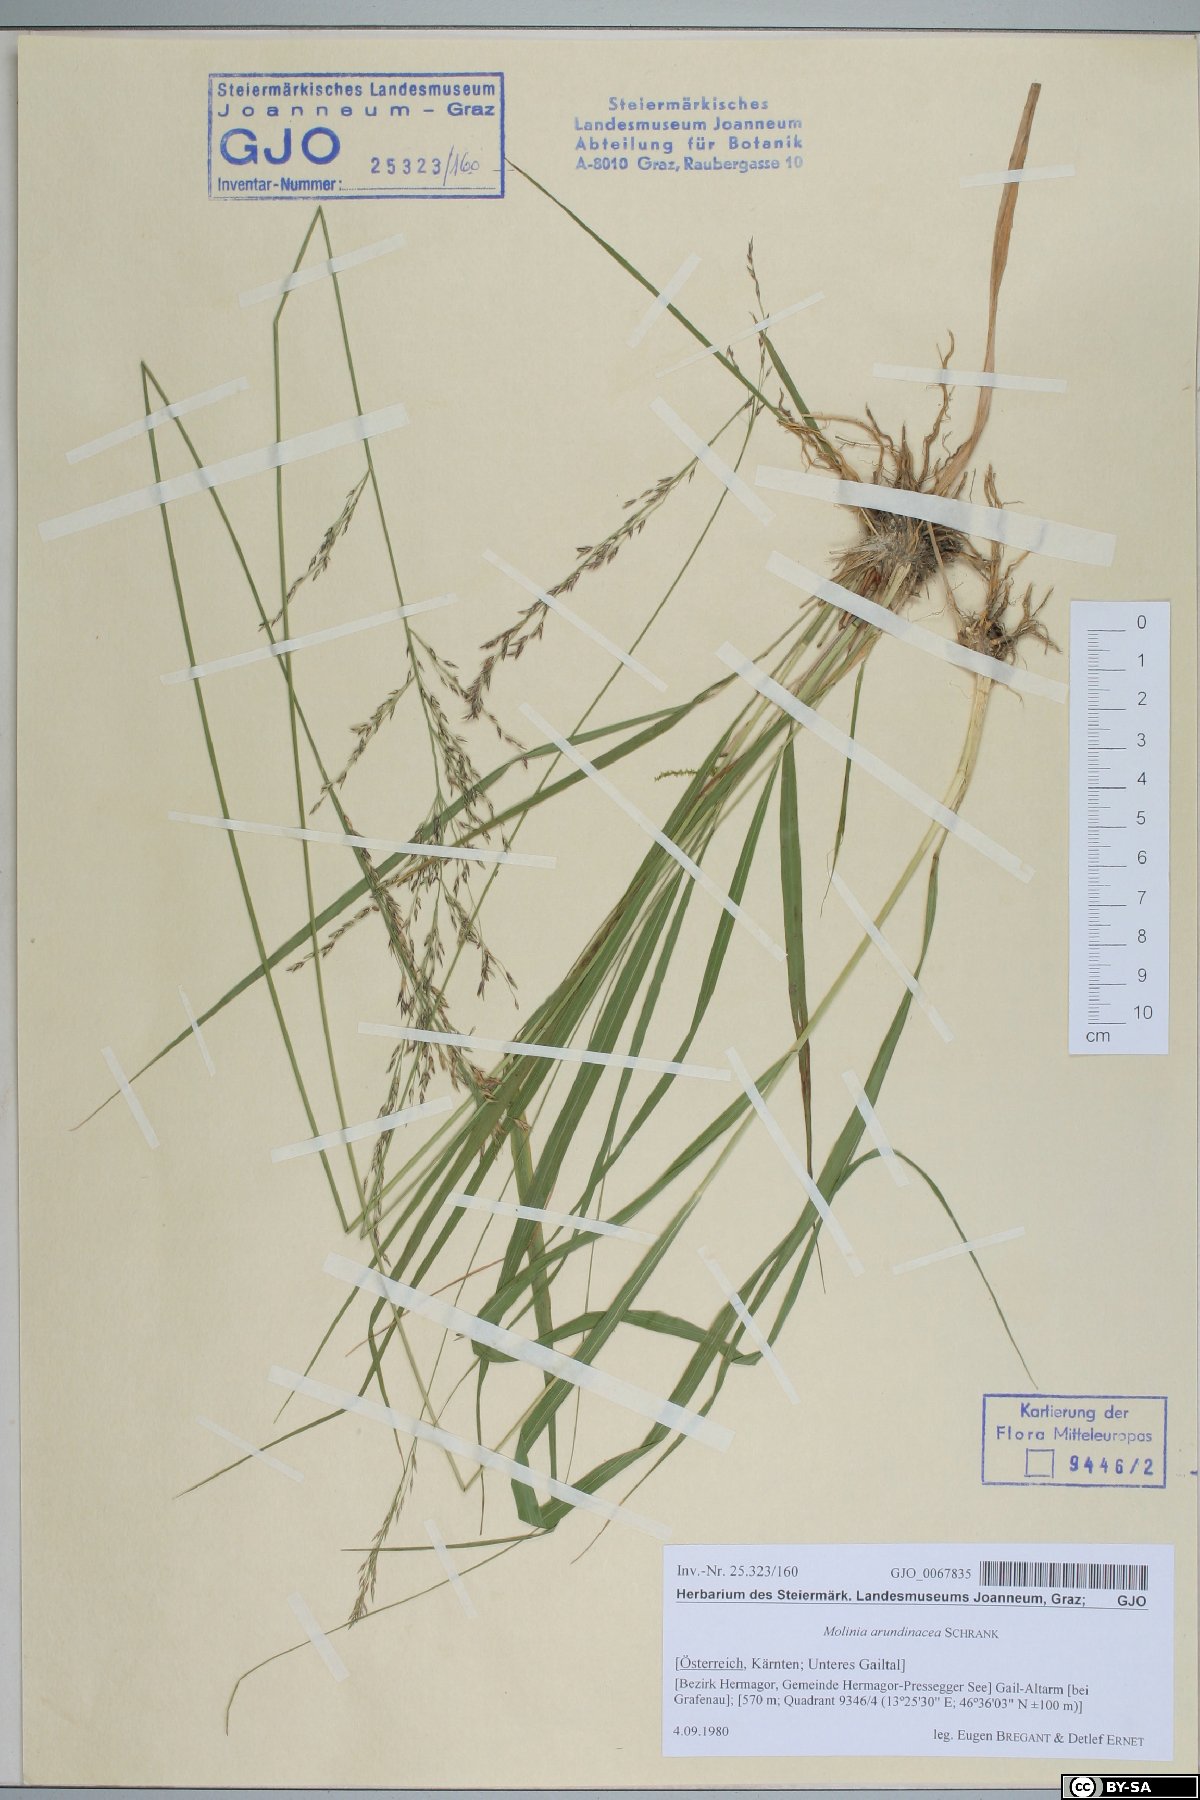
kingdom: Plantae
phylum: Tracheophyta
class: Liliopsida
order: Poales
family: Poaceae
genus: Molinia
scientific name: Molinia arundinacea
